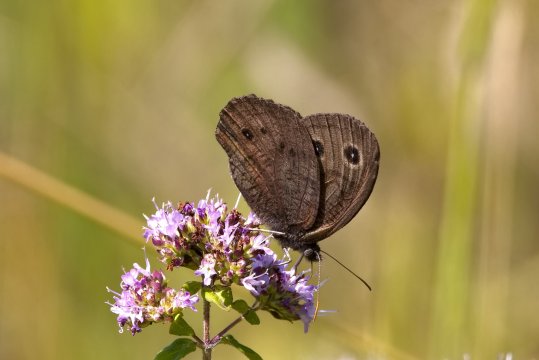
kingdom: Animalia
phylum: Arthropoda
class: Insecta
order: Lepidoptera
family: Nymphalidae
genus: Cercyonis
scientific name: Cercyonis pegala
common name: Common Wood-Nymph
